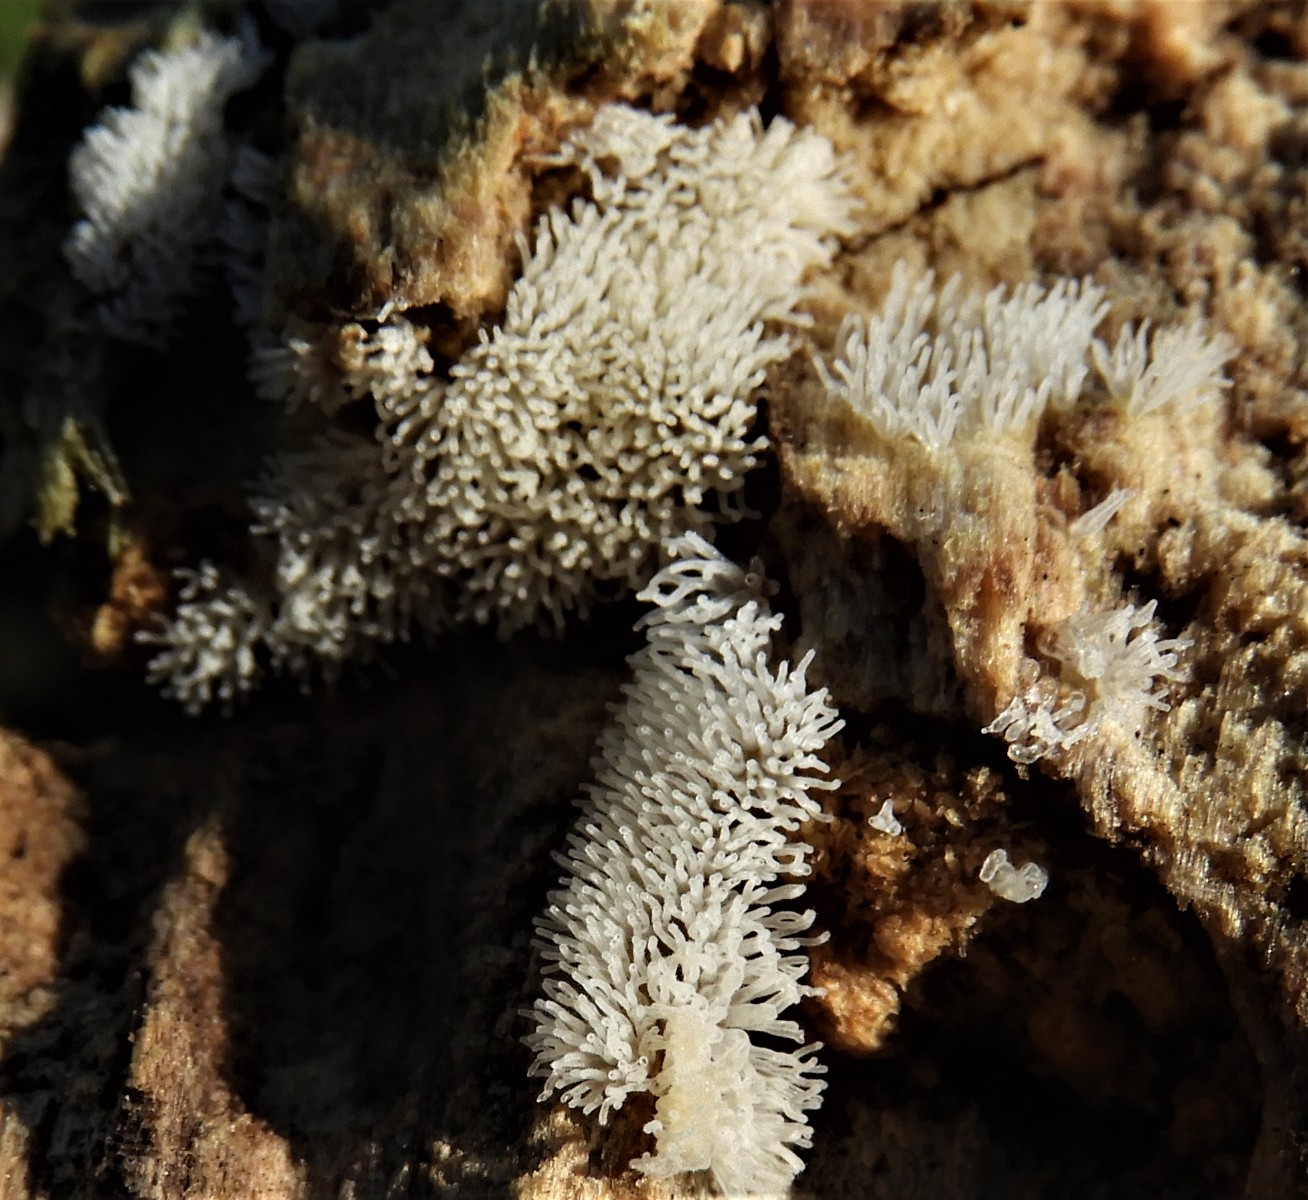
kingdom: Protozoa
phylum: Mycetozoa
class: Protosteliomycetes
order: Ceratiomyxales
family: Ceratiomyxaceae
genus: Ceratiomyxa
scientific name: Ceratiomyxa fruticulosa
